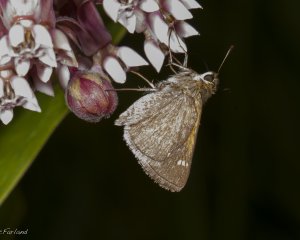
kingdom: Animalia
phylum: Arthropoda
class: Insecta
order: Lepidoptera
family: Hesperiidae
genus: Polites
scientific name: Polites themistocles
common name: Tawny-edged Skipper
